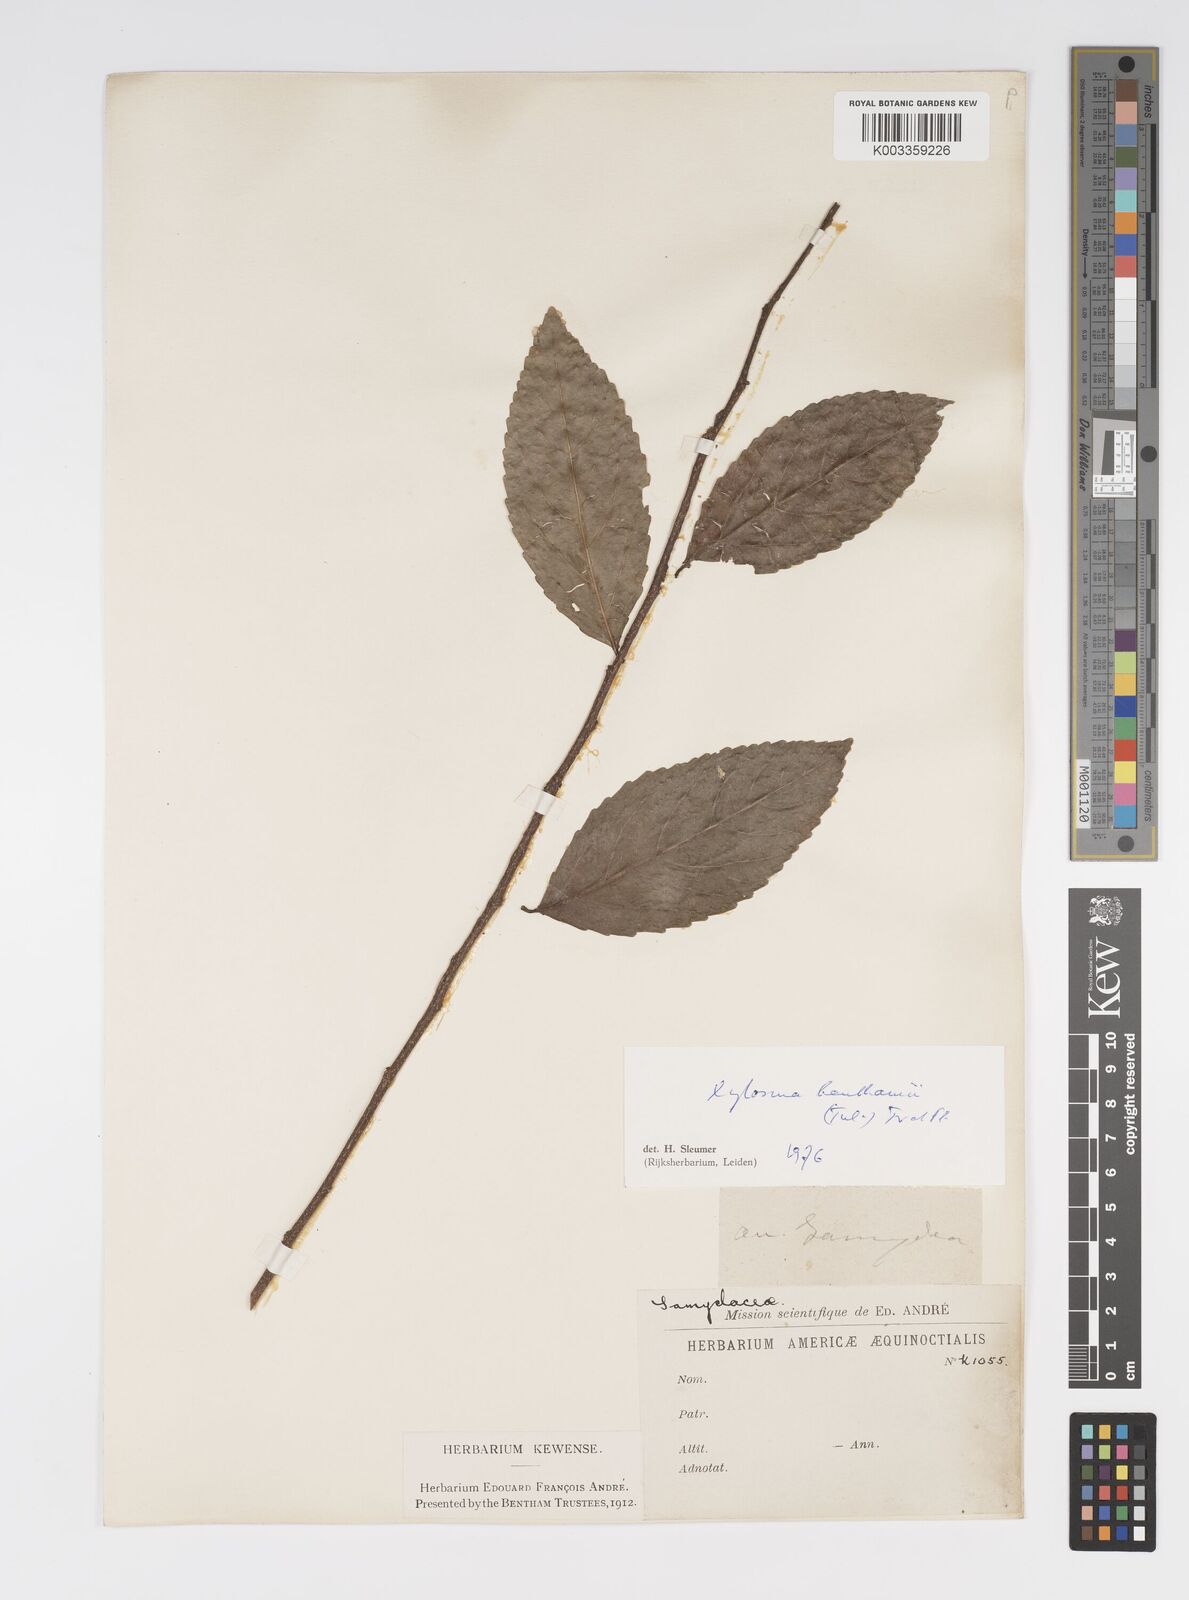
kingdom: Plantae
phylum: Tracheophyta
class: Magnoliopsida
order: Malpighiales
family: Salicaceae
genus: Xylosma
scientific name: Xylosma benthamii
